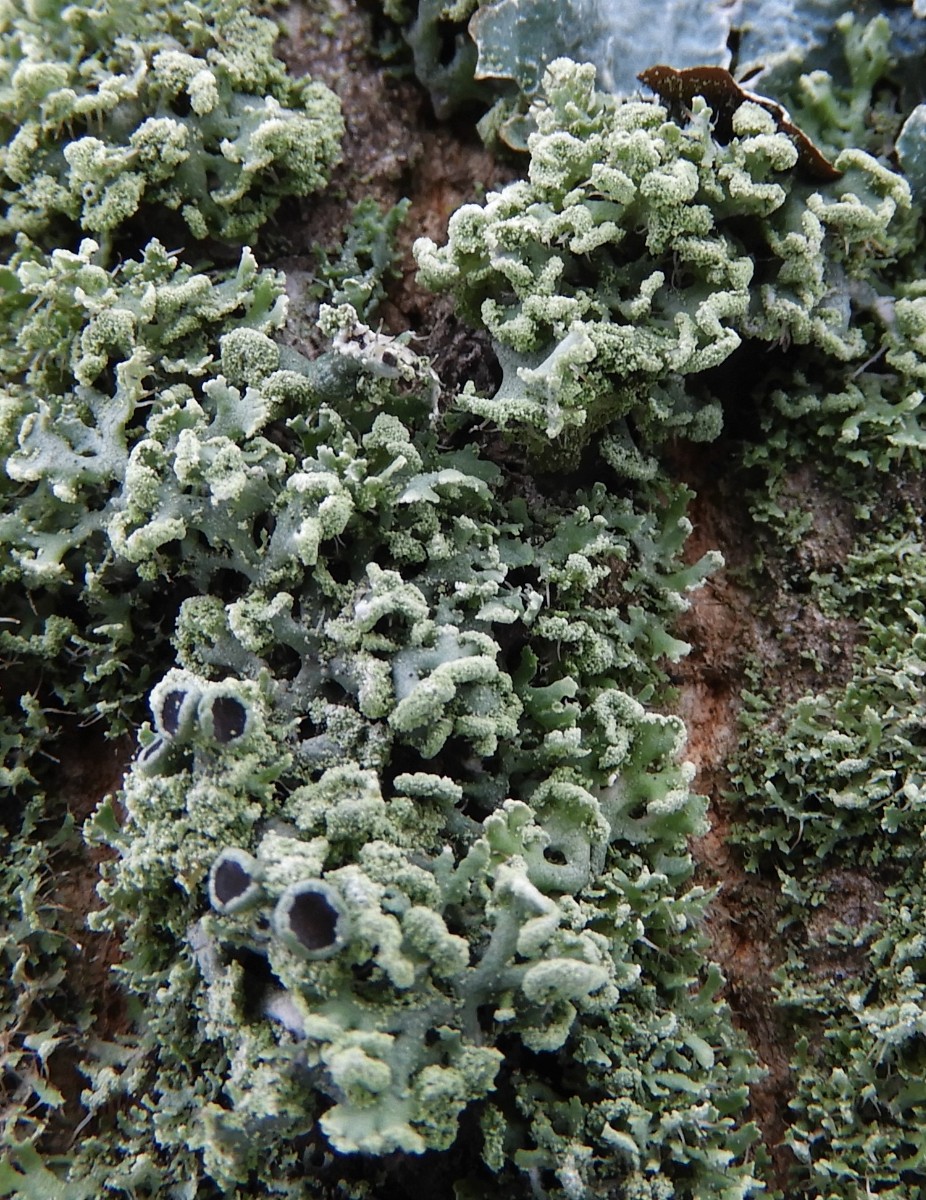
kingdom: Fungi
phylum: Ascomycota
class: Lecanoromycetes
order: Caliciales
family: Physciaceae
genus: Physcia
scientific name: Physcia tenella
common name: spæd rosetlav
